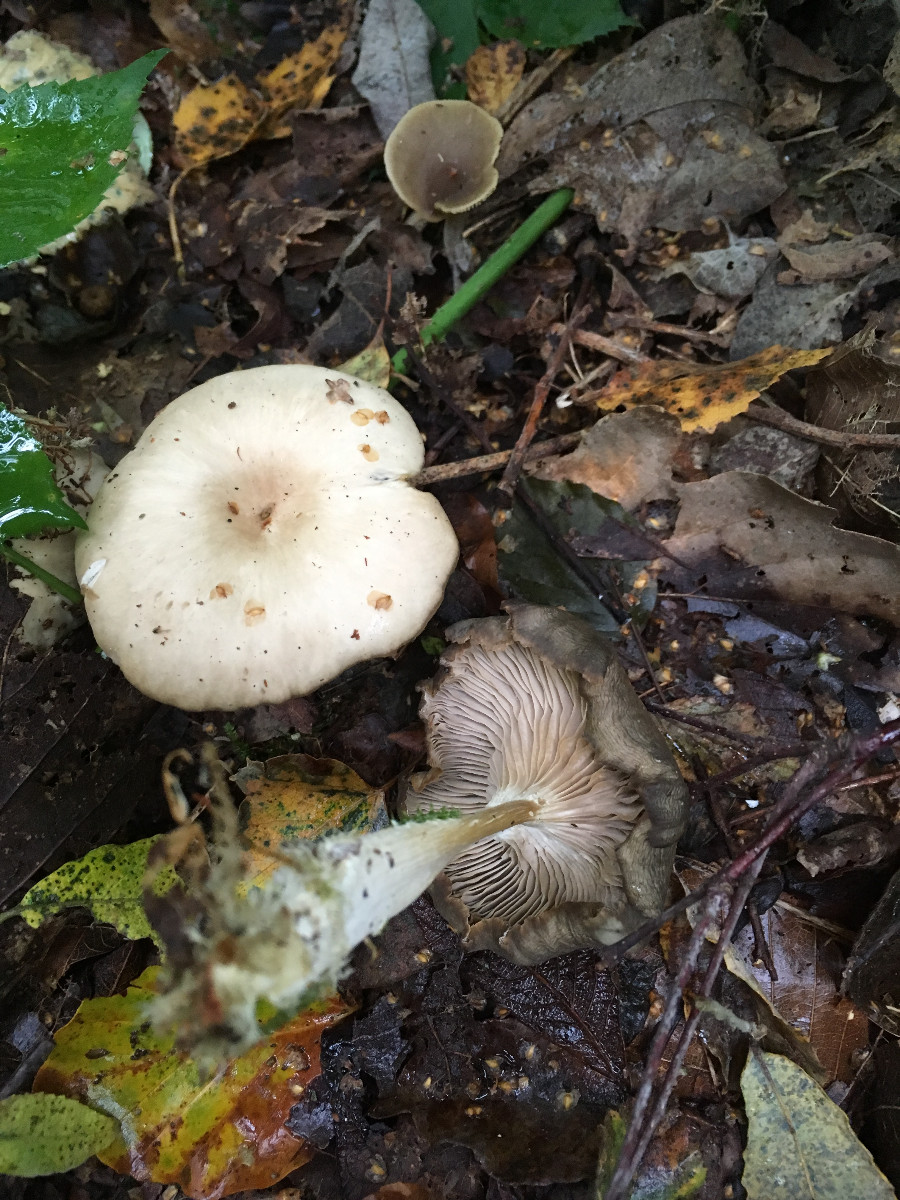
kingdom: Fungi
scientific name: Fungi
